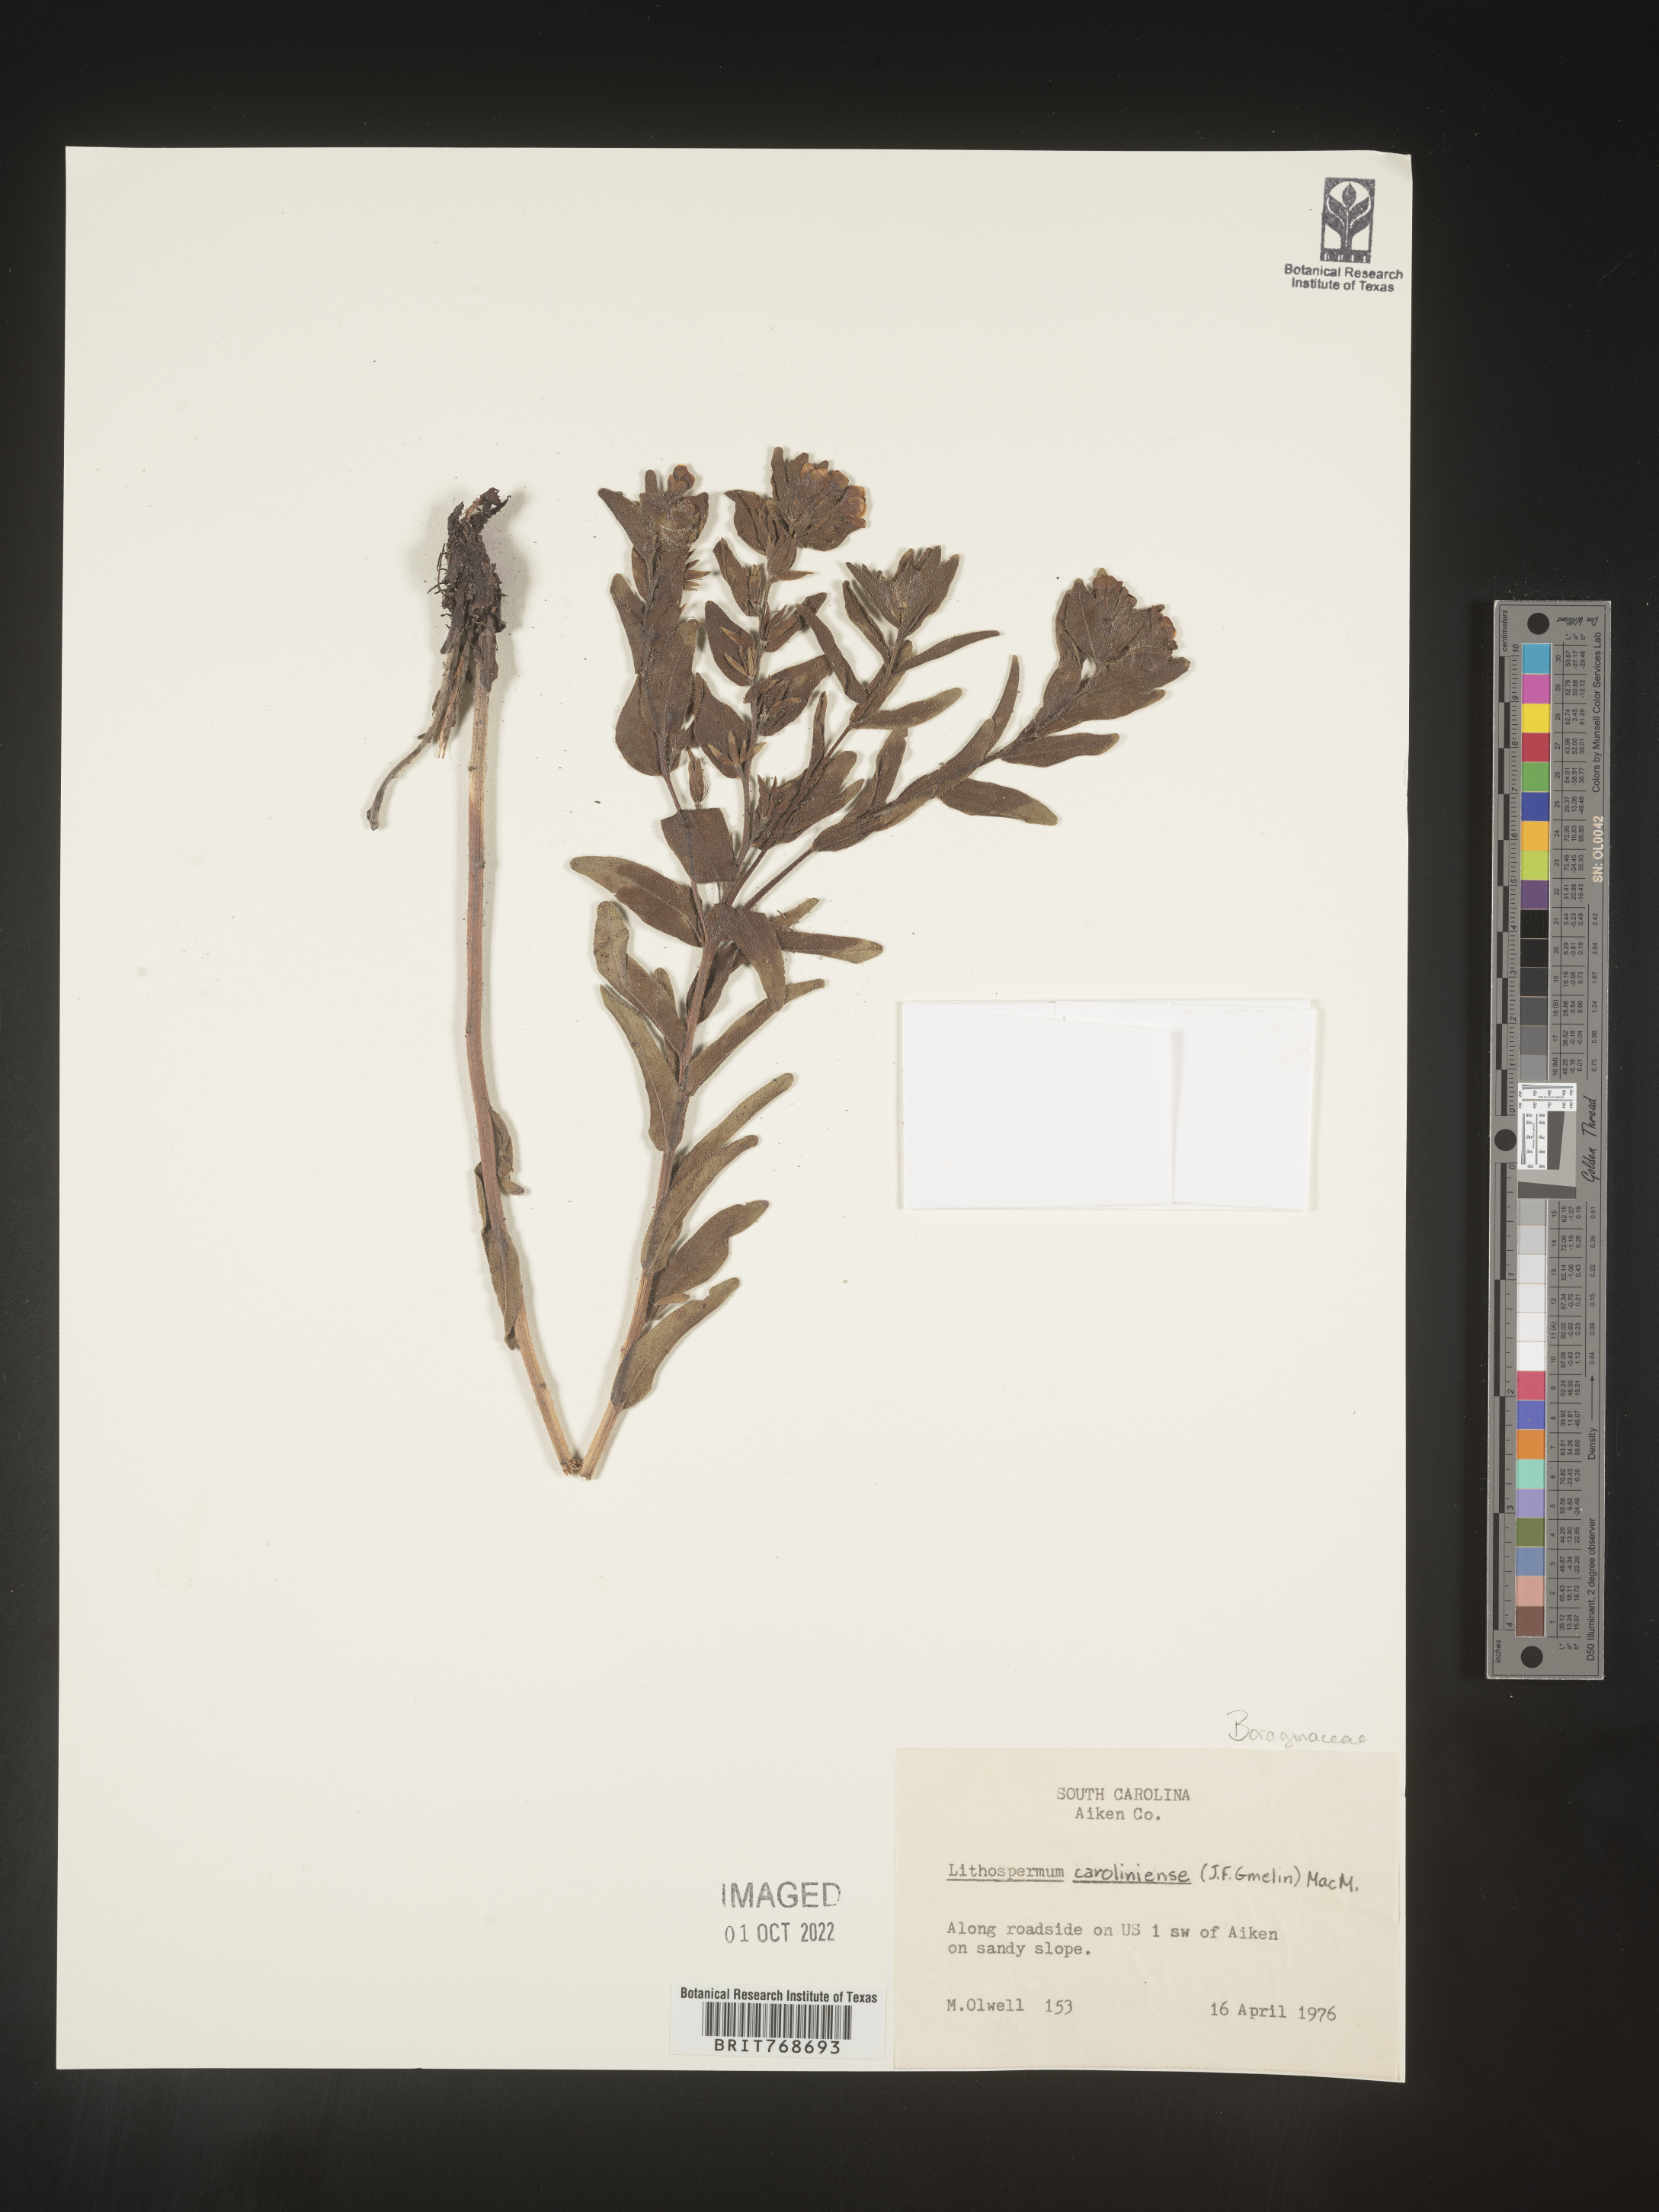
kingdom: Plantae
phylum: Tracheophyta
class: Magnoliopsida
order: Boraginales
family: Boraginaceae
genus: Lithospermum
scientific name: Lithospermum caroliniense
